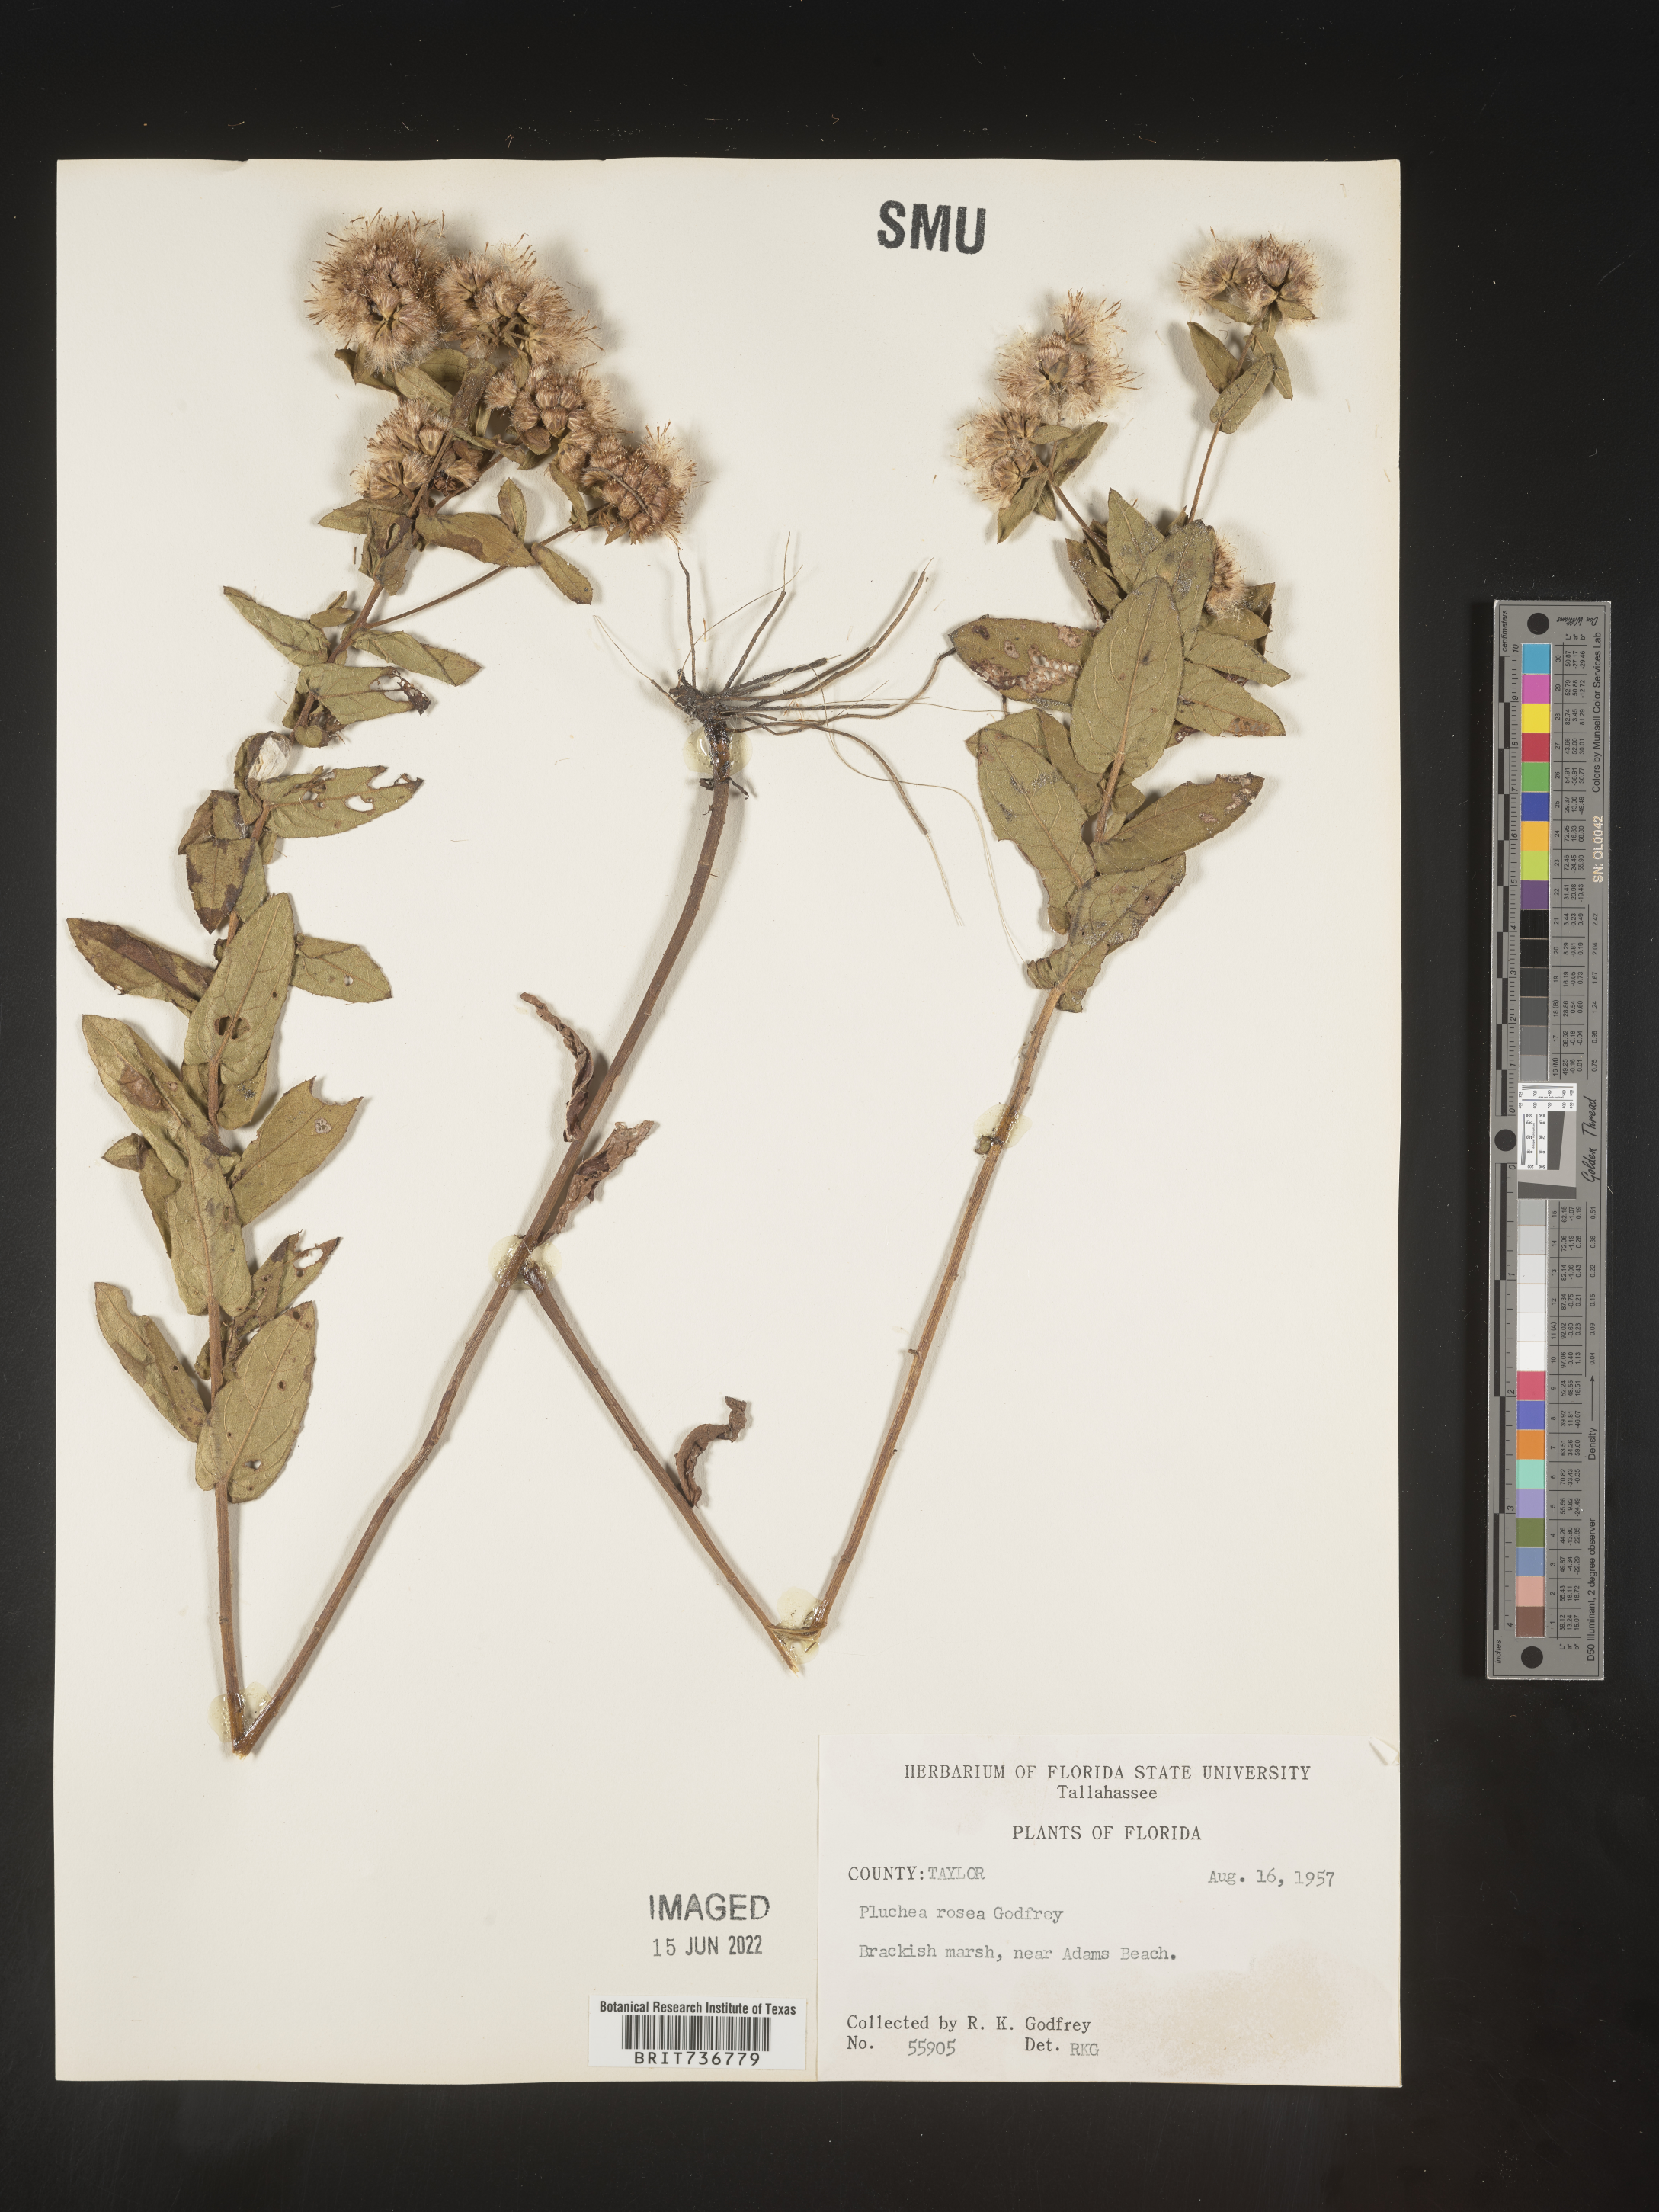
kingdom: Plantae
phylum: Tracheophyta
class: Magnoliopsida
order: Asterales
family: Asteraceae
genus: Pluchea
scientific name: Pluchea baccharis
